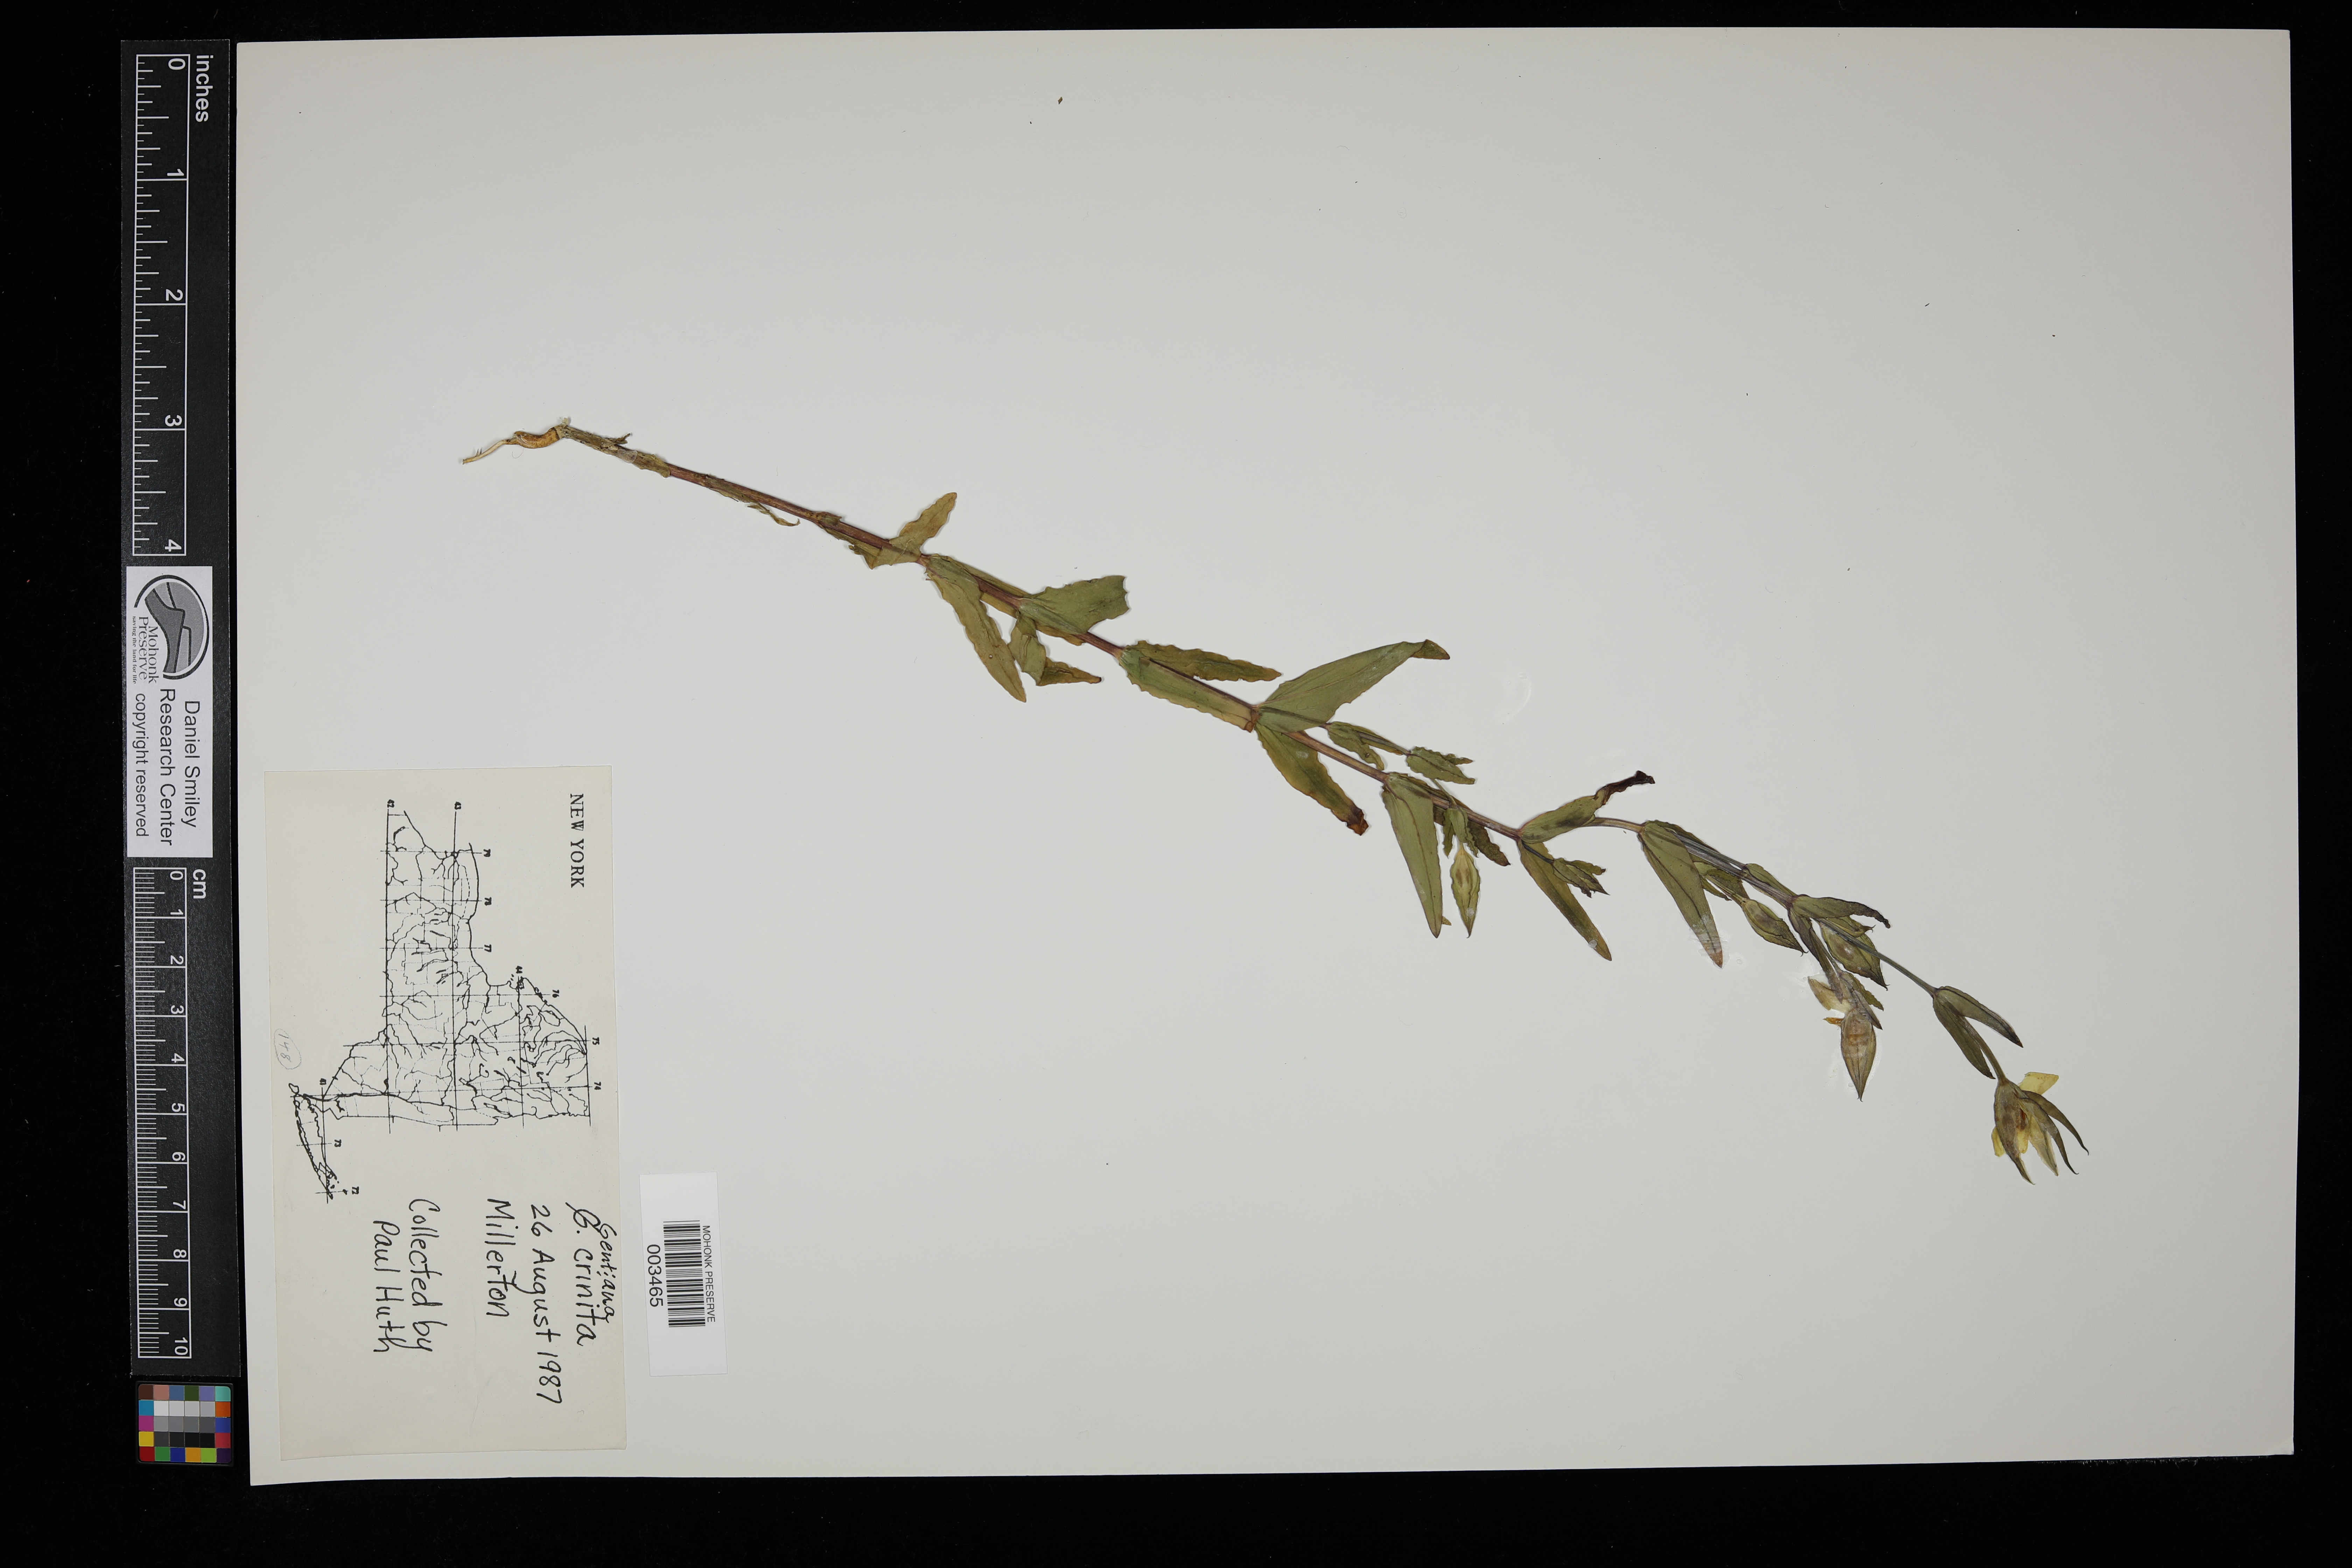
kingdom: Plantae
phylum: Tracheophyta
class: Magnoliopsida
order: Gentianales
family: Gentianaceae
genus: Gentianopsis
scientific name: Gentianopsis crinita
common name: Fringed-gentian
